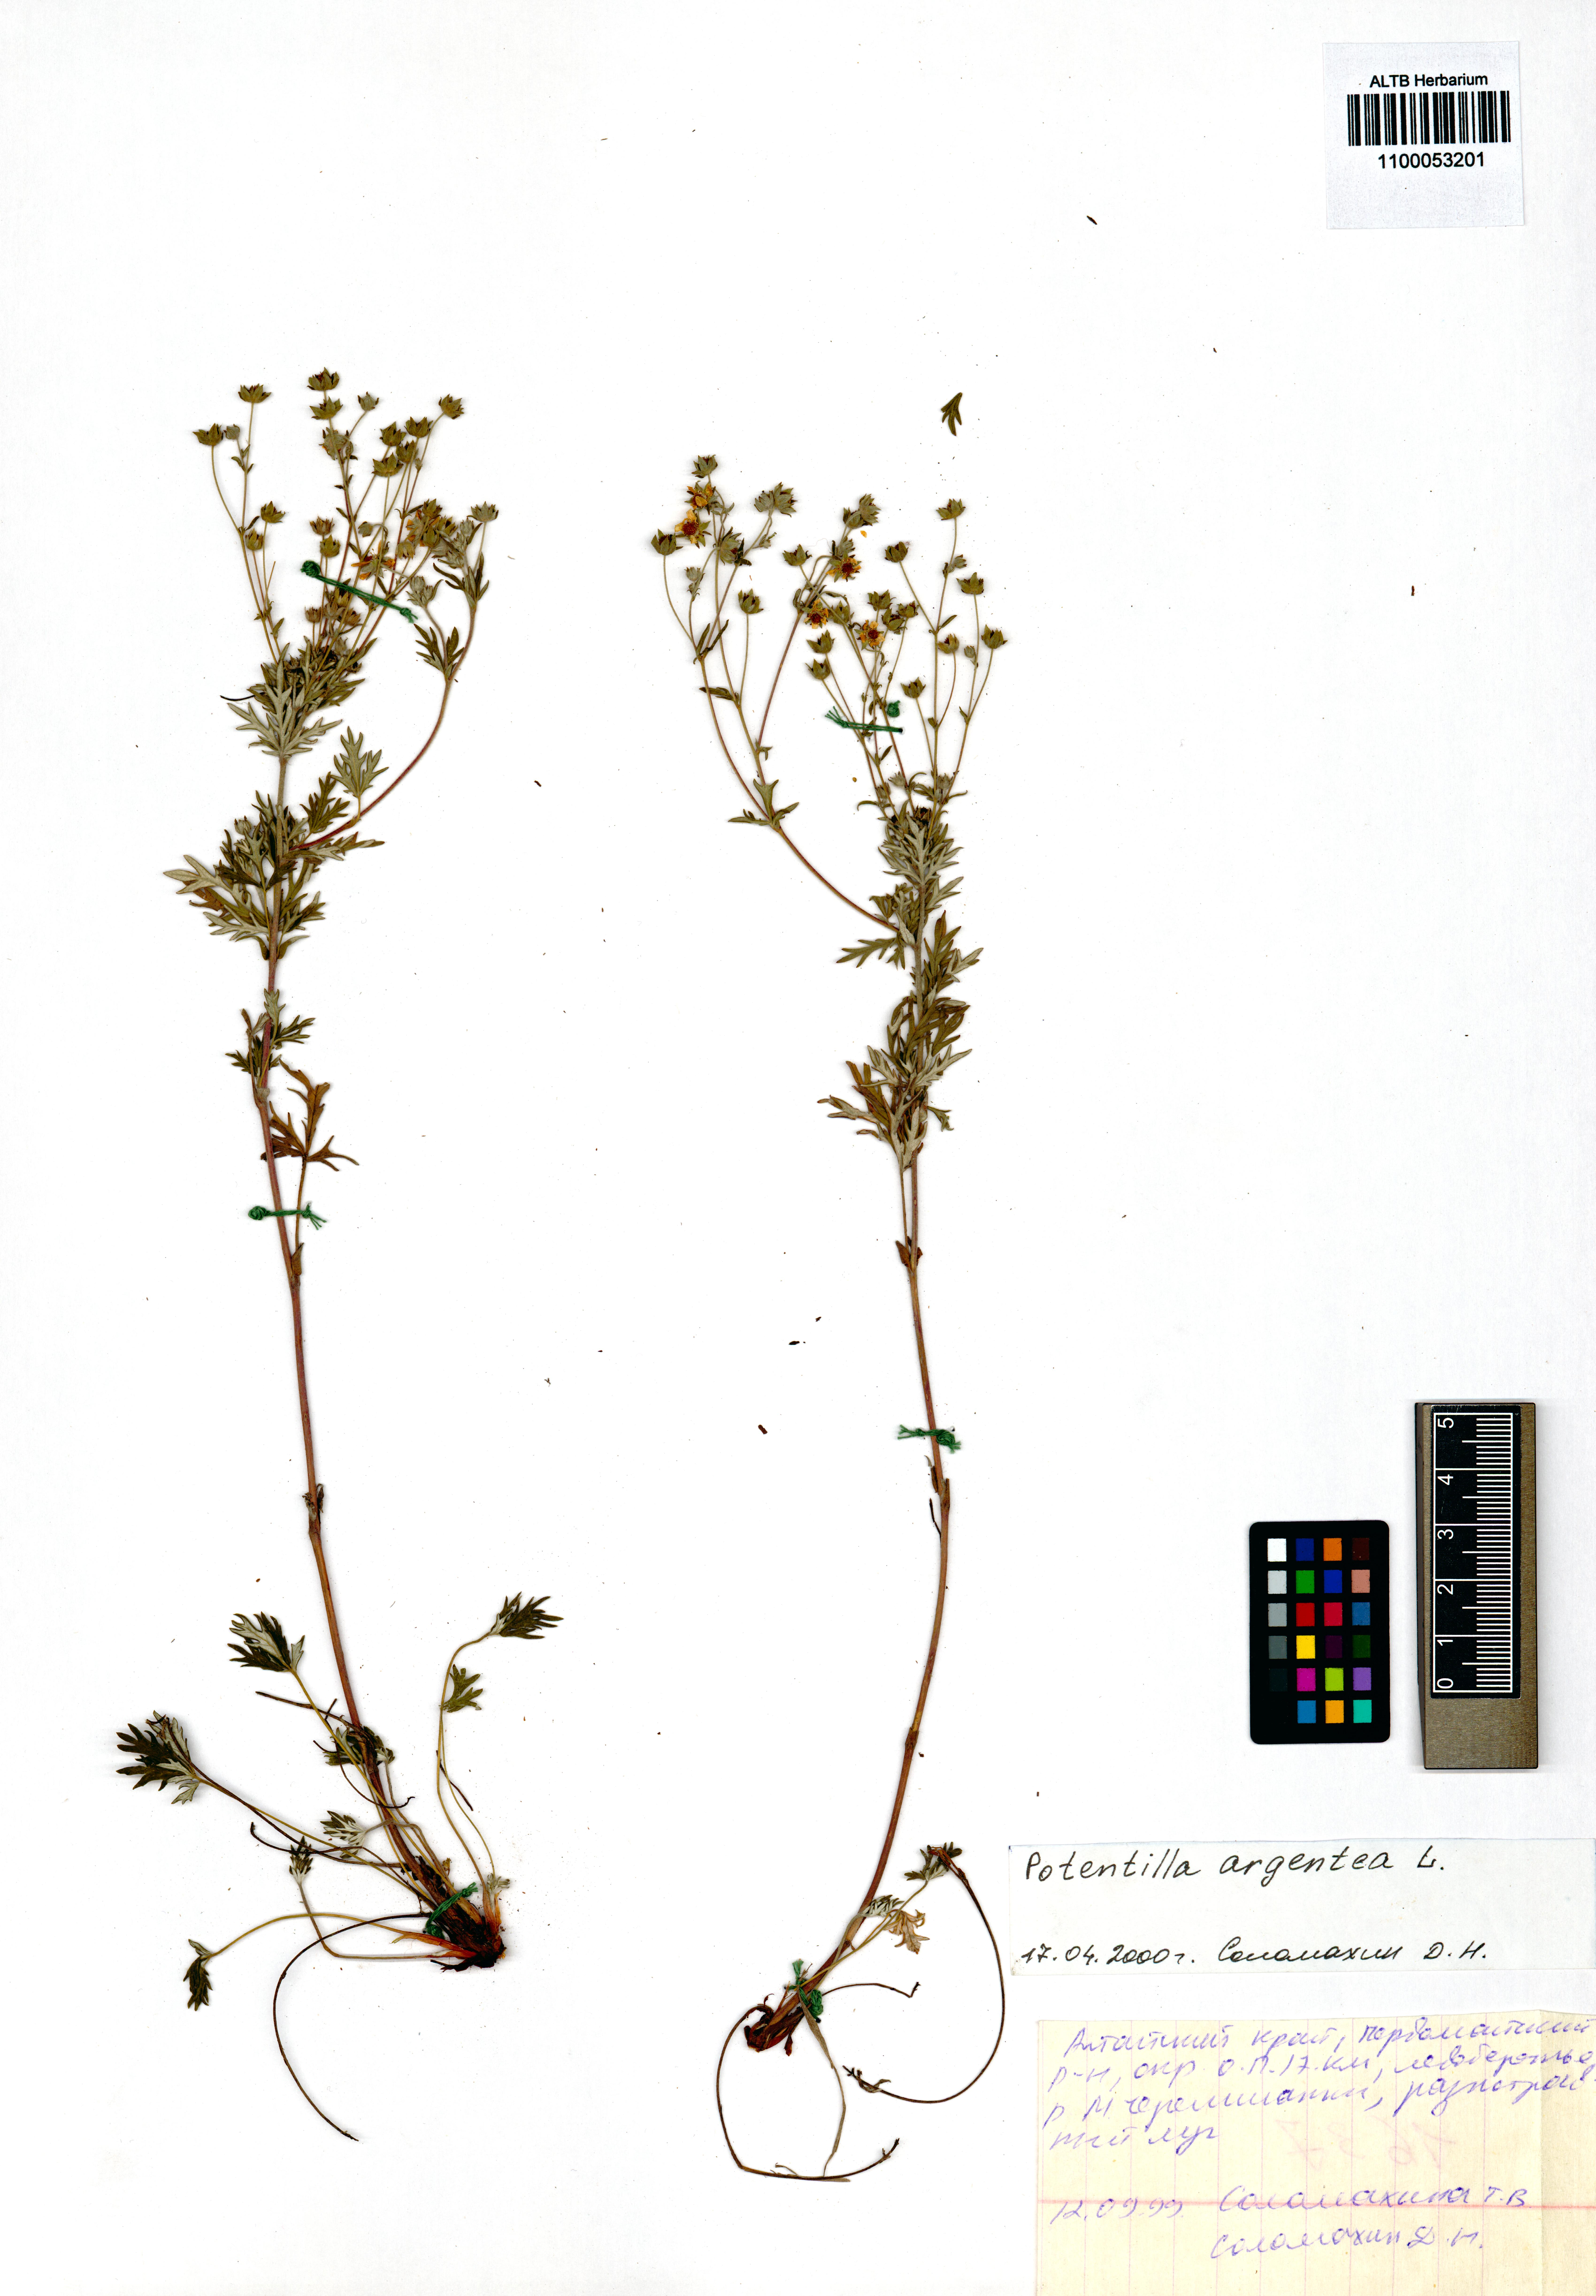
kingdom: Plantae
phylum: Tracheophyta
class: Magnoliopsida
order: Rosales
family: Rosaceae
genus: Potentilla
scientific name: Potentilla argentea
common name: Hoary cinquefoil
